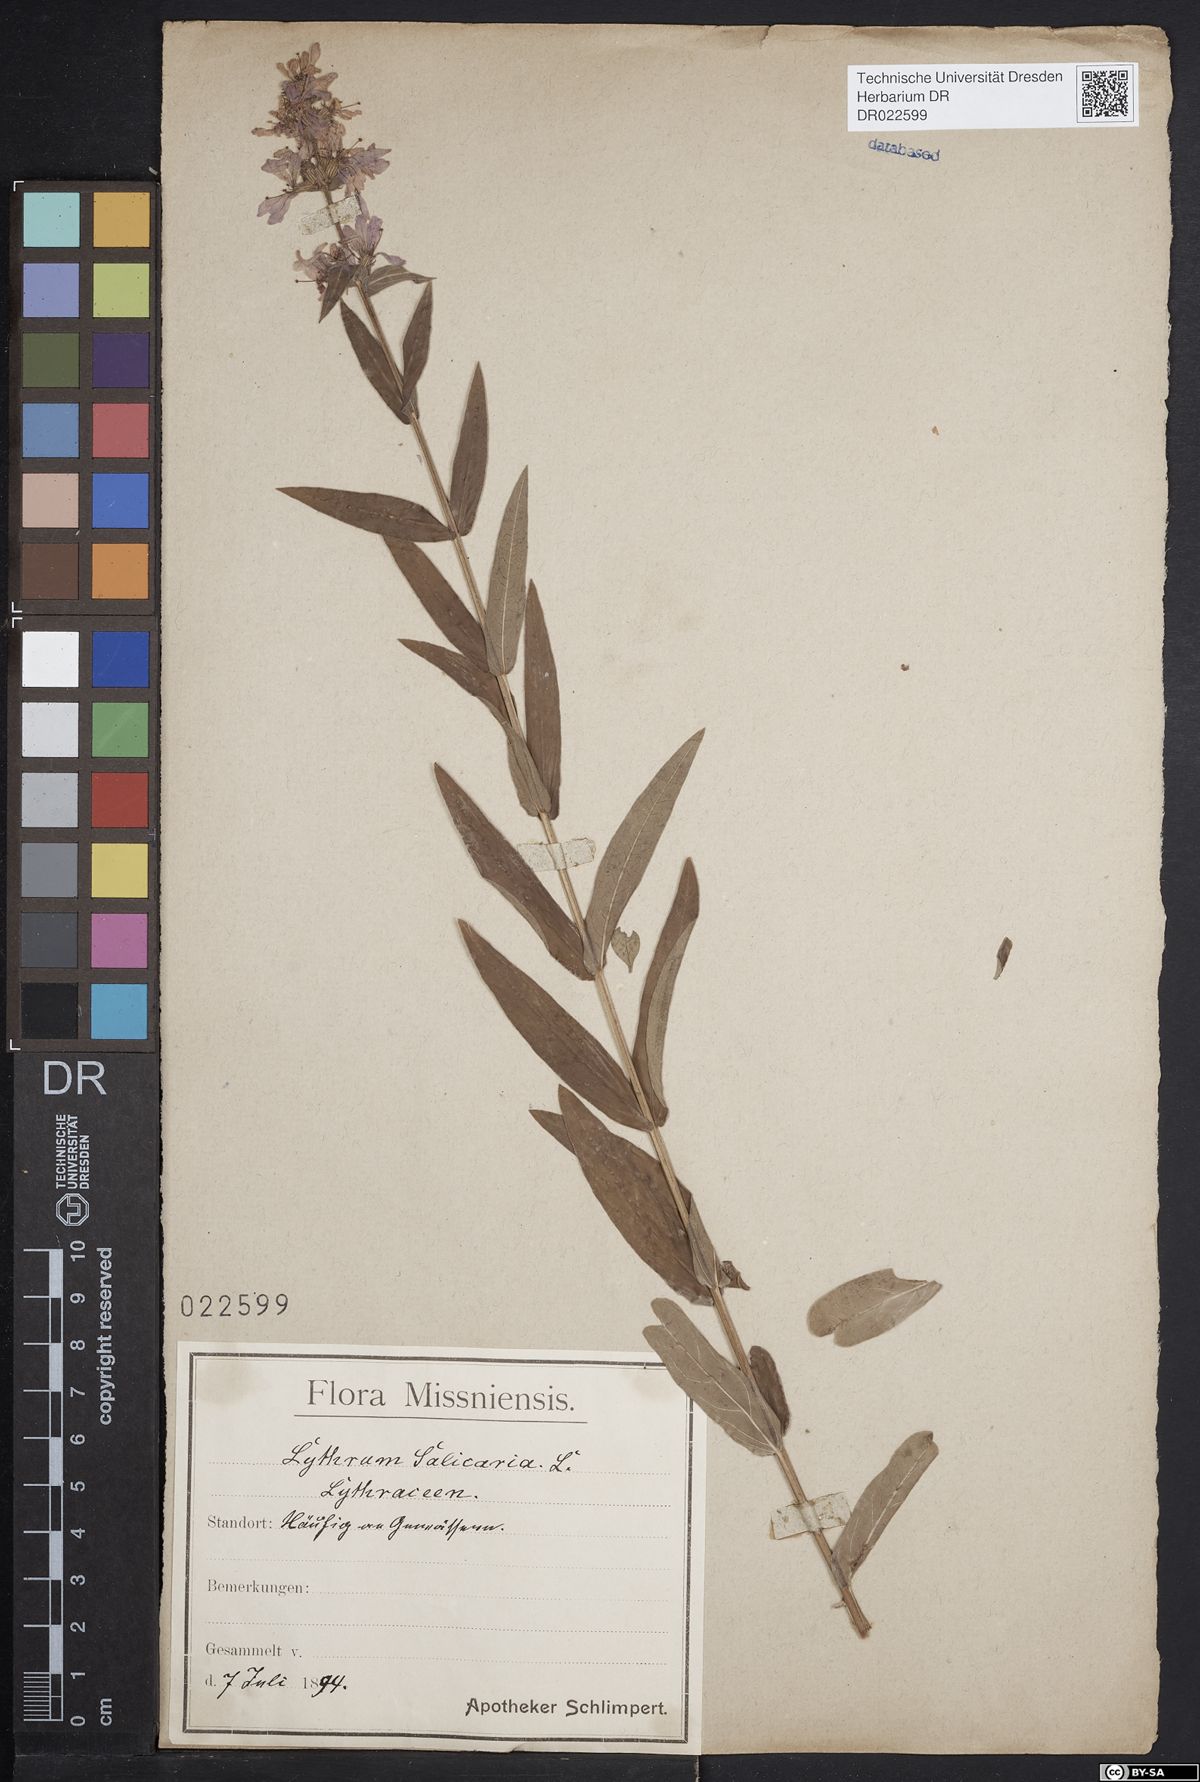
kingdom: Plantae
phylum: Tracheophyta
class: Magnoliopsida
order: Myrtales
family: Lythraceae
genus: Lythrum
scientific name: Lythrum salicaria
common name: Purple loosestrife
